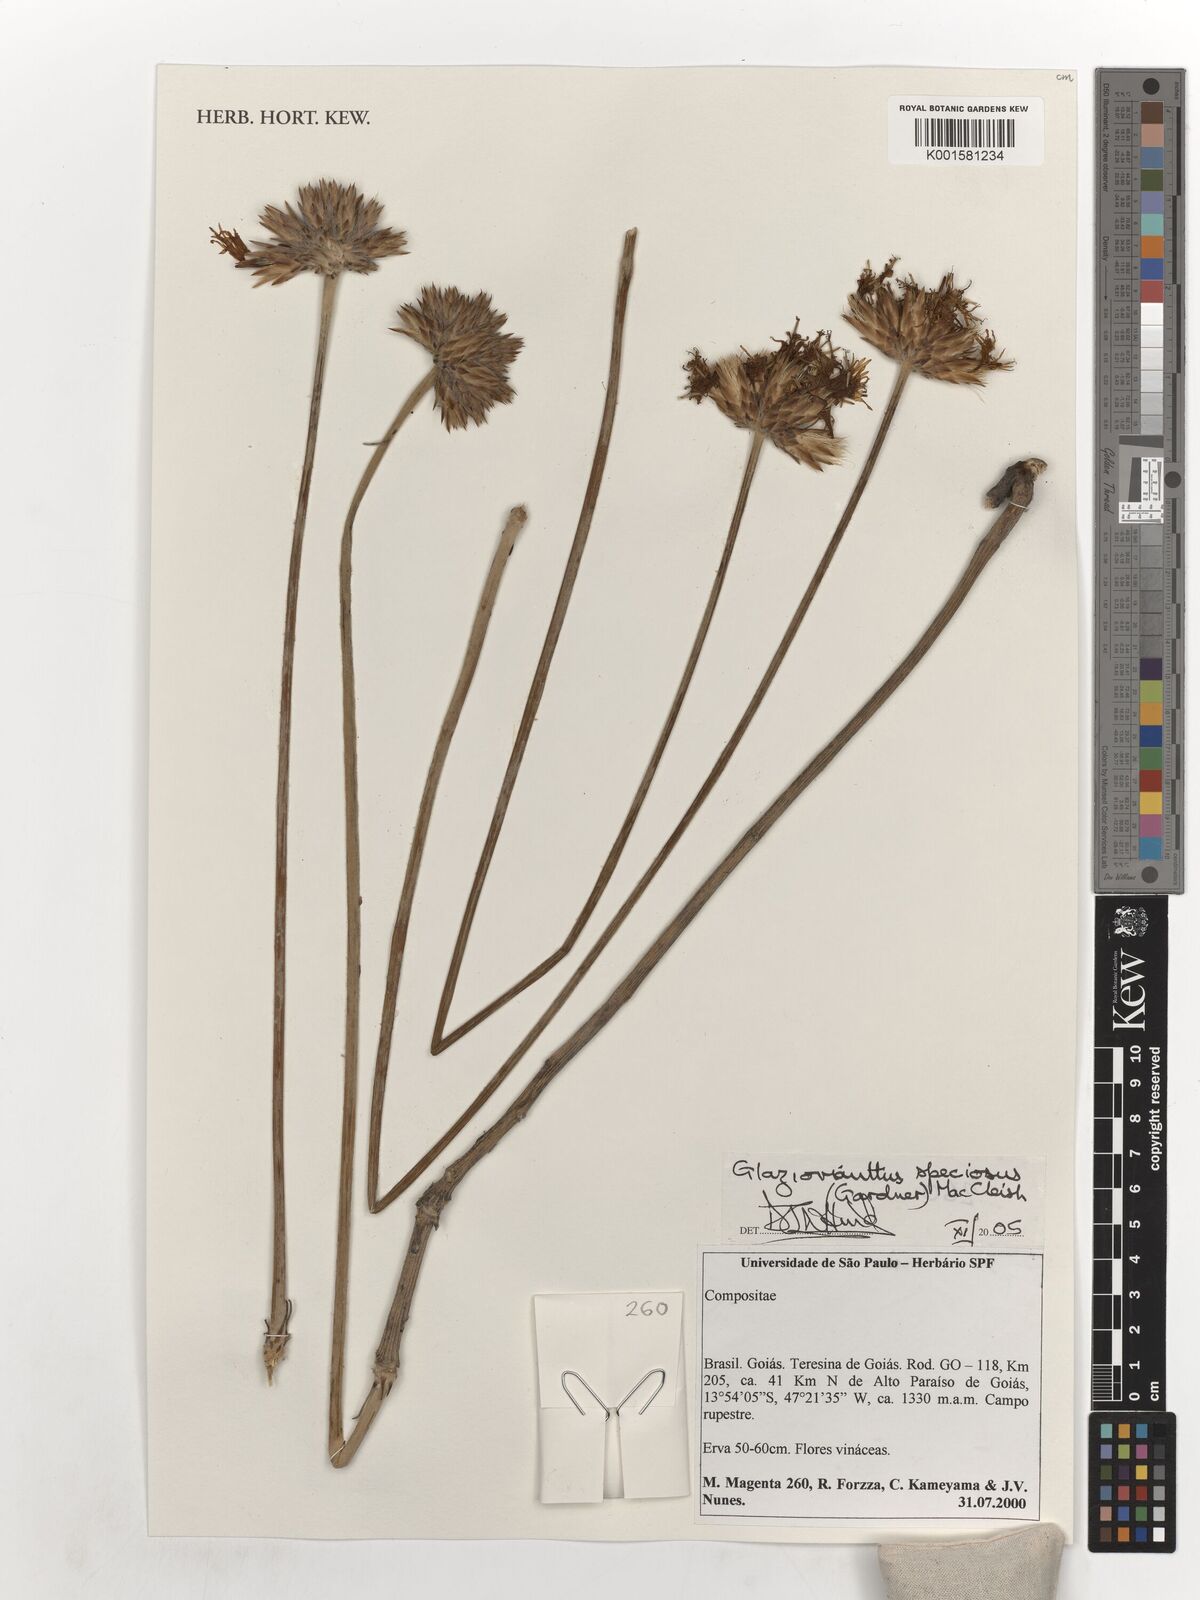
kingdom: Plantae
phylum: Tracheophyta
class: Magnoliopsida
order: Asterales
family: Asteraceae
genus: Chresta
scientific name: Chresta speciosa
